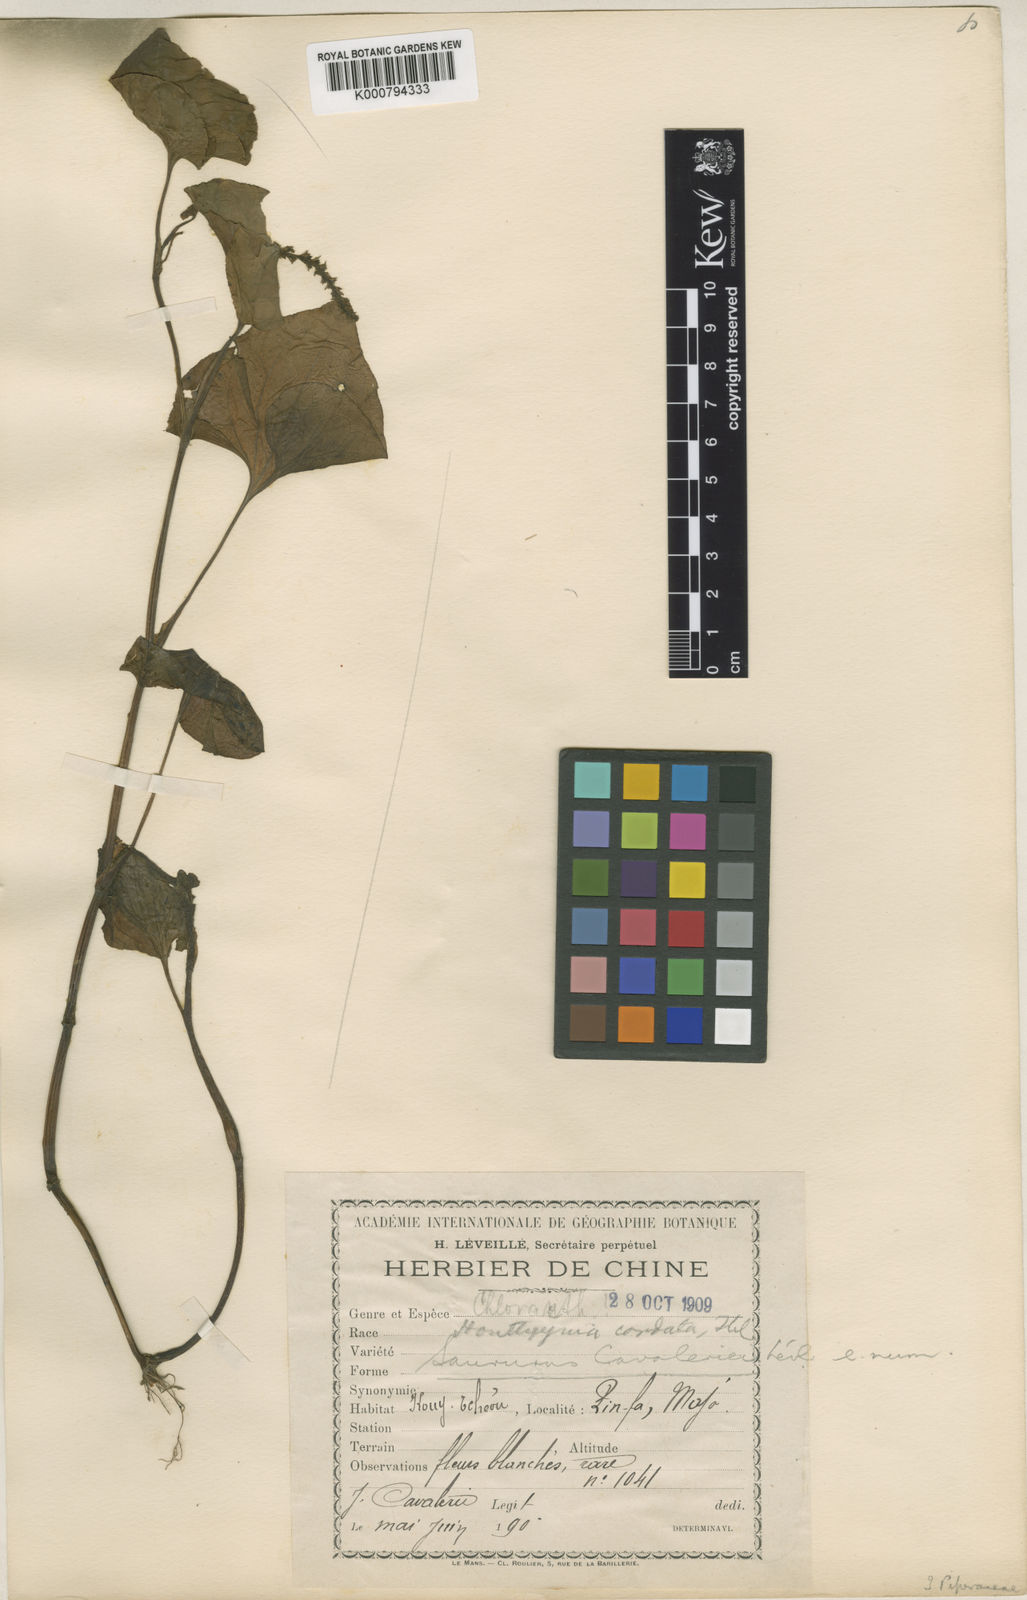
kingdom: Plantae
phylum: Tracheophyta
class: Magnoliopsida
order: Piperales
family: Saururaceae
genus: Gymnotheca
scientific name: Gymnotheca chinensis
